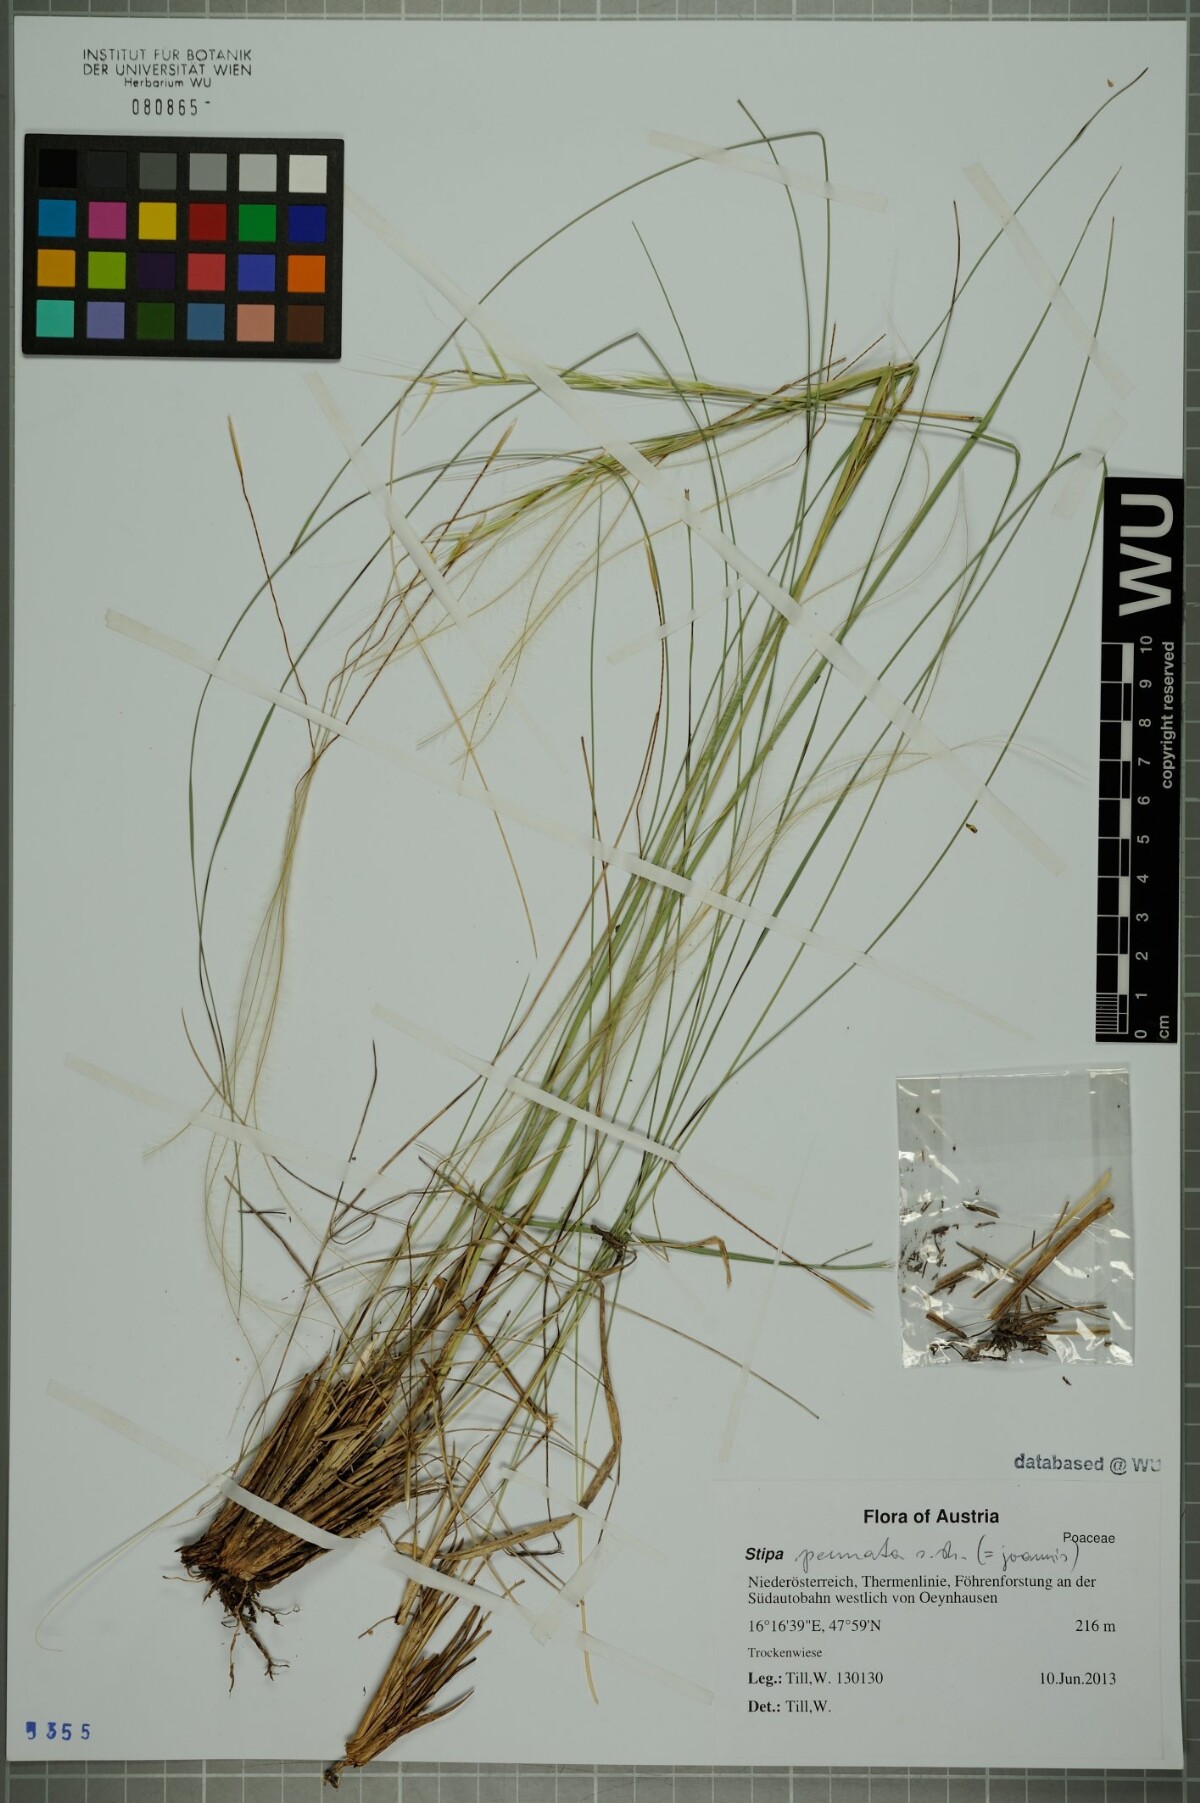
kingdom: Plantae
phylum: Tracheophyta
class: Liliopsida
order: Poales
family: Poaceae
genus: Stipa
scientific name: Stipa pennata
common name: European feather grass
